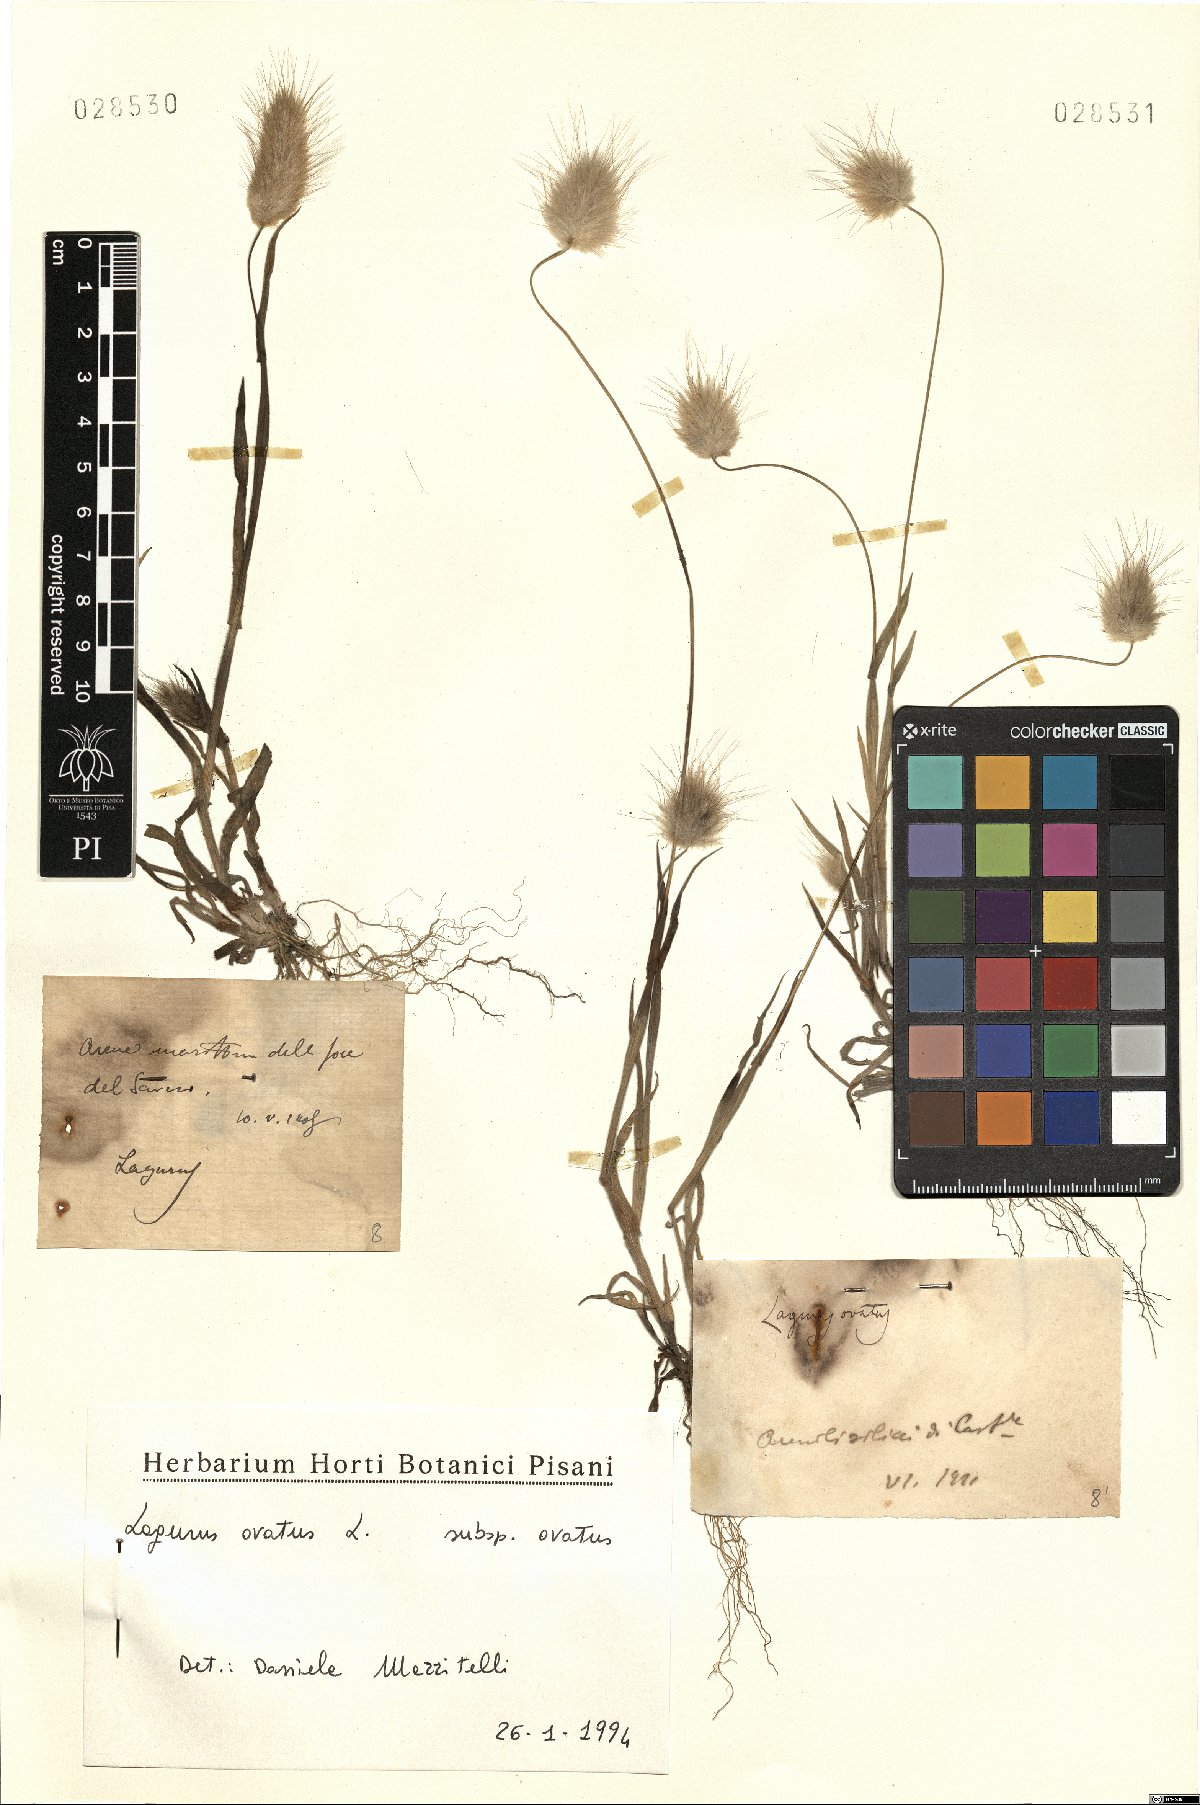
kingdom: Plantae
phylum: Tracheophyta
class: Liliopsida
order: Poales
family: Poaceae
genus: Lagurus
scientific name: Lagurus ovatus
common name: Hare's-tail
